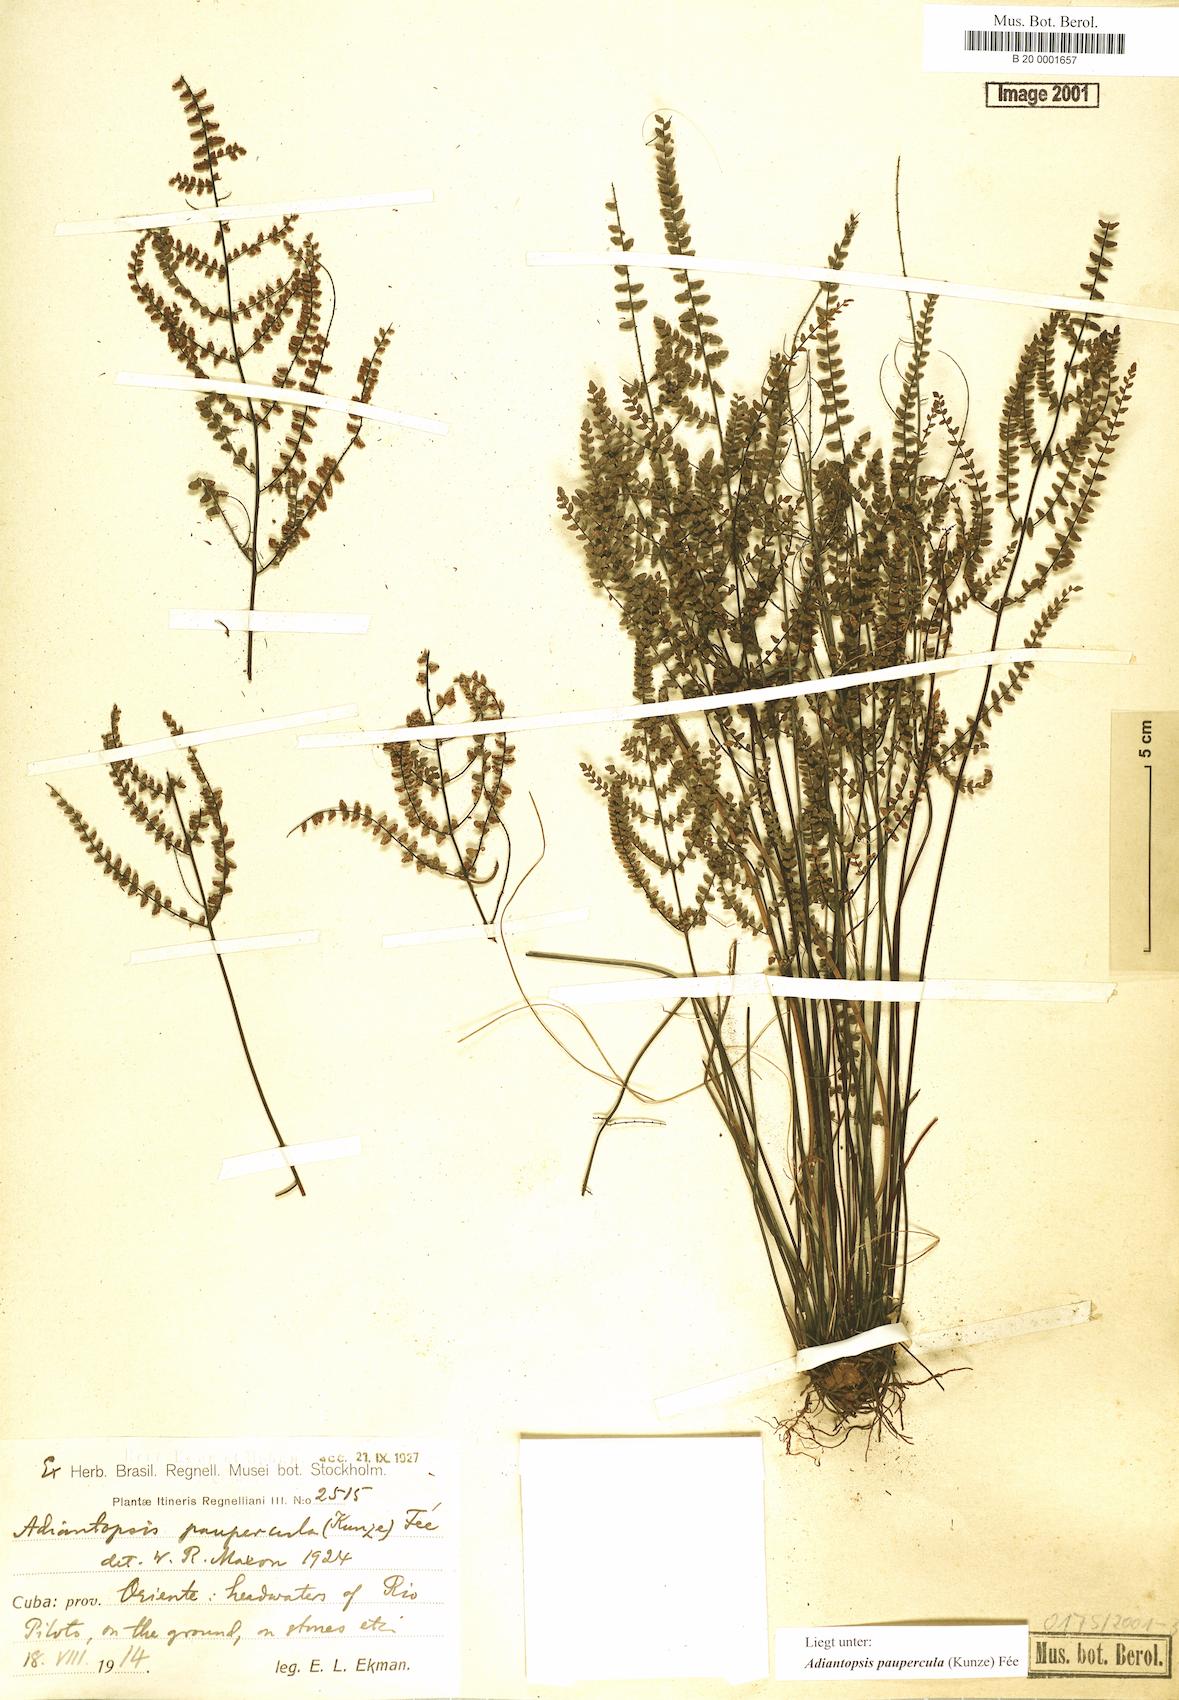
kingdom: Plantae
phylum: Tracheophyta
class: Polypodiopsida
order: Polypodiales
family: Pteridaceae
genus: Adiantopsis
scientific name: Adiantopsis paupercula
